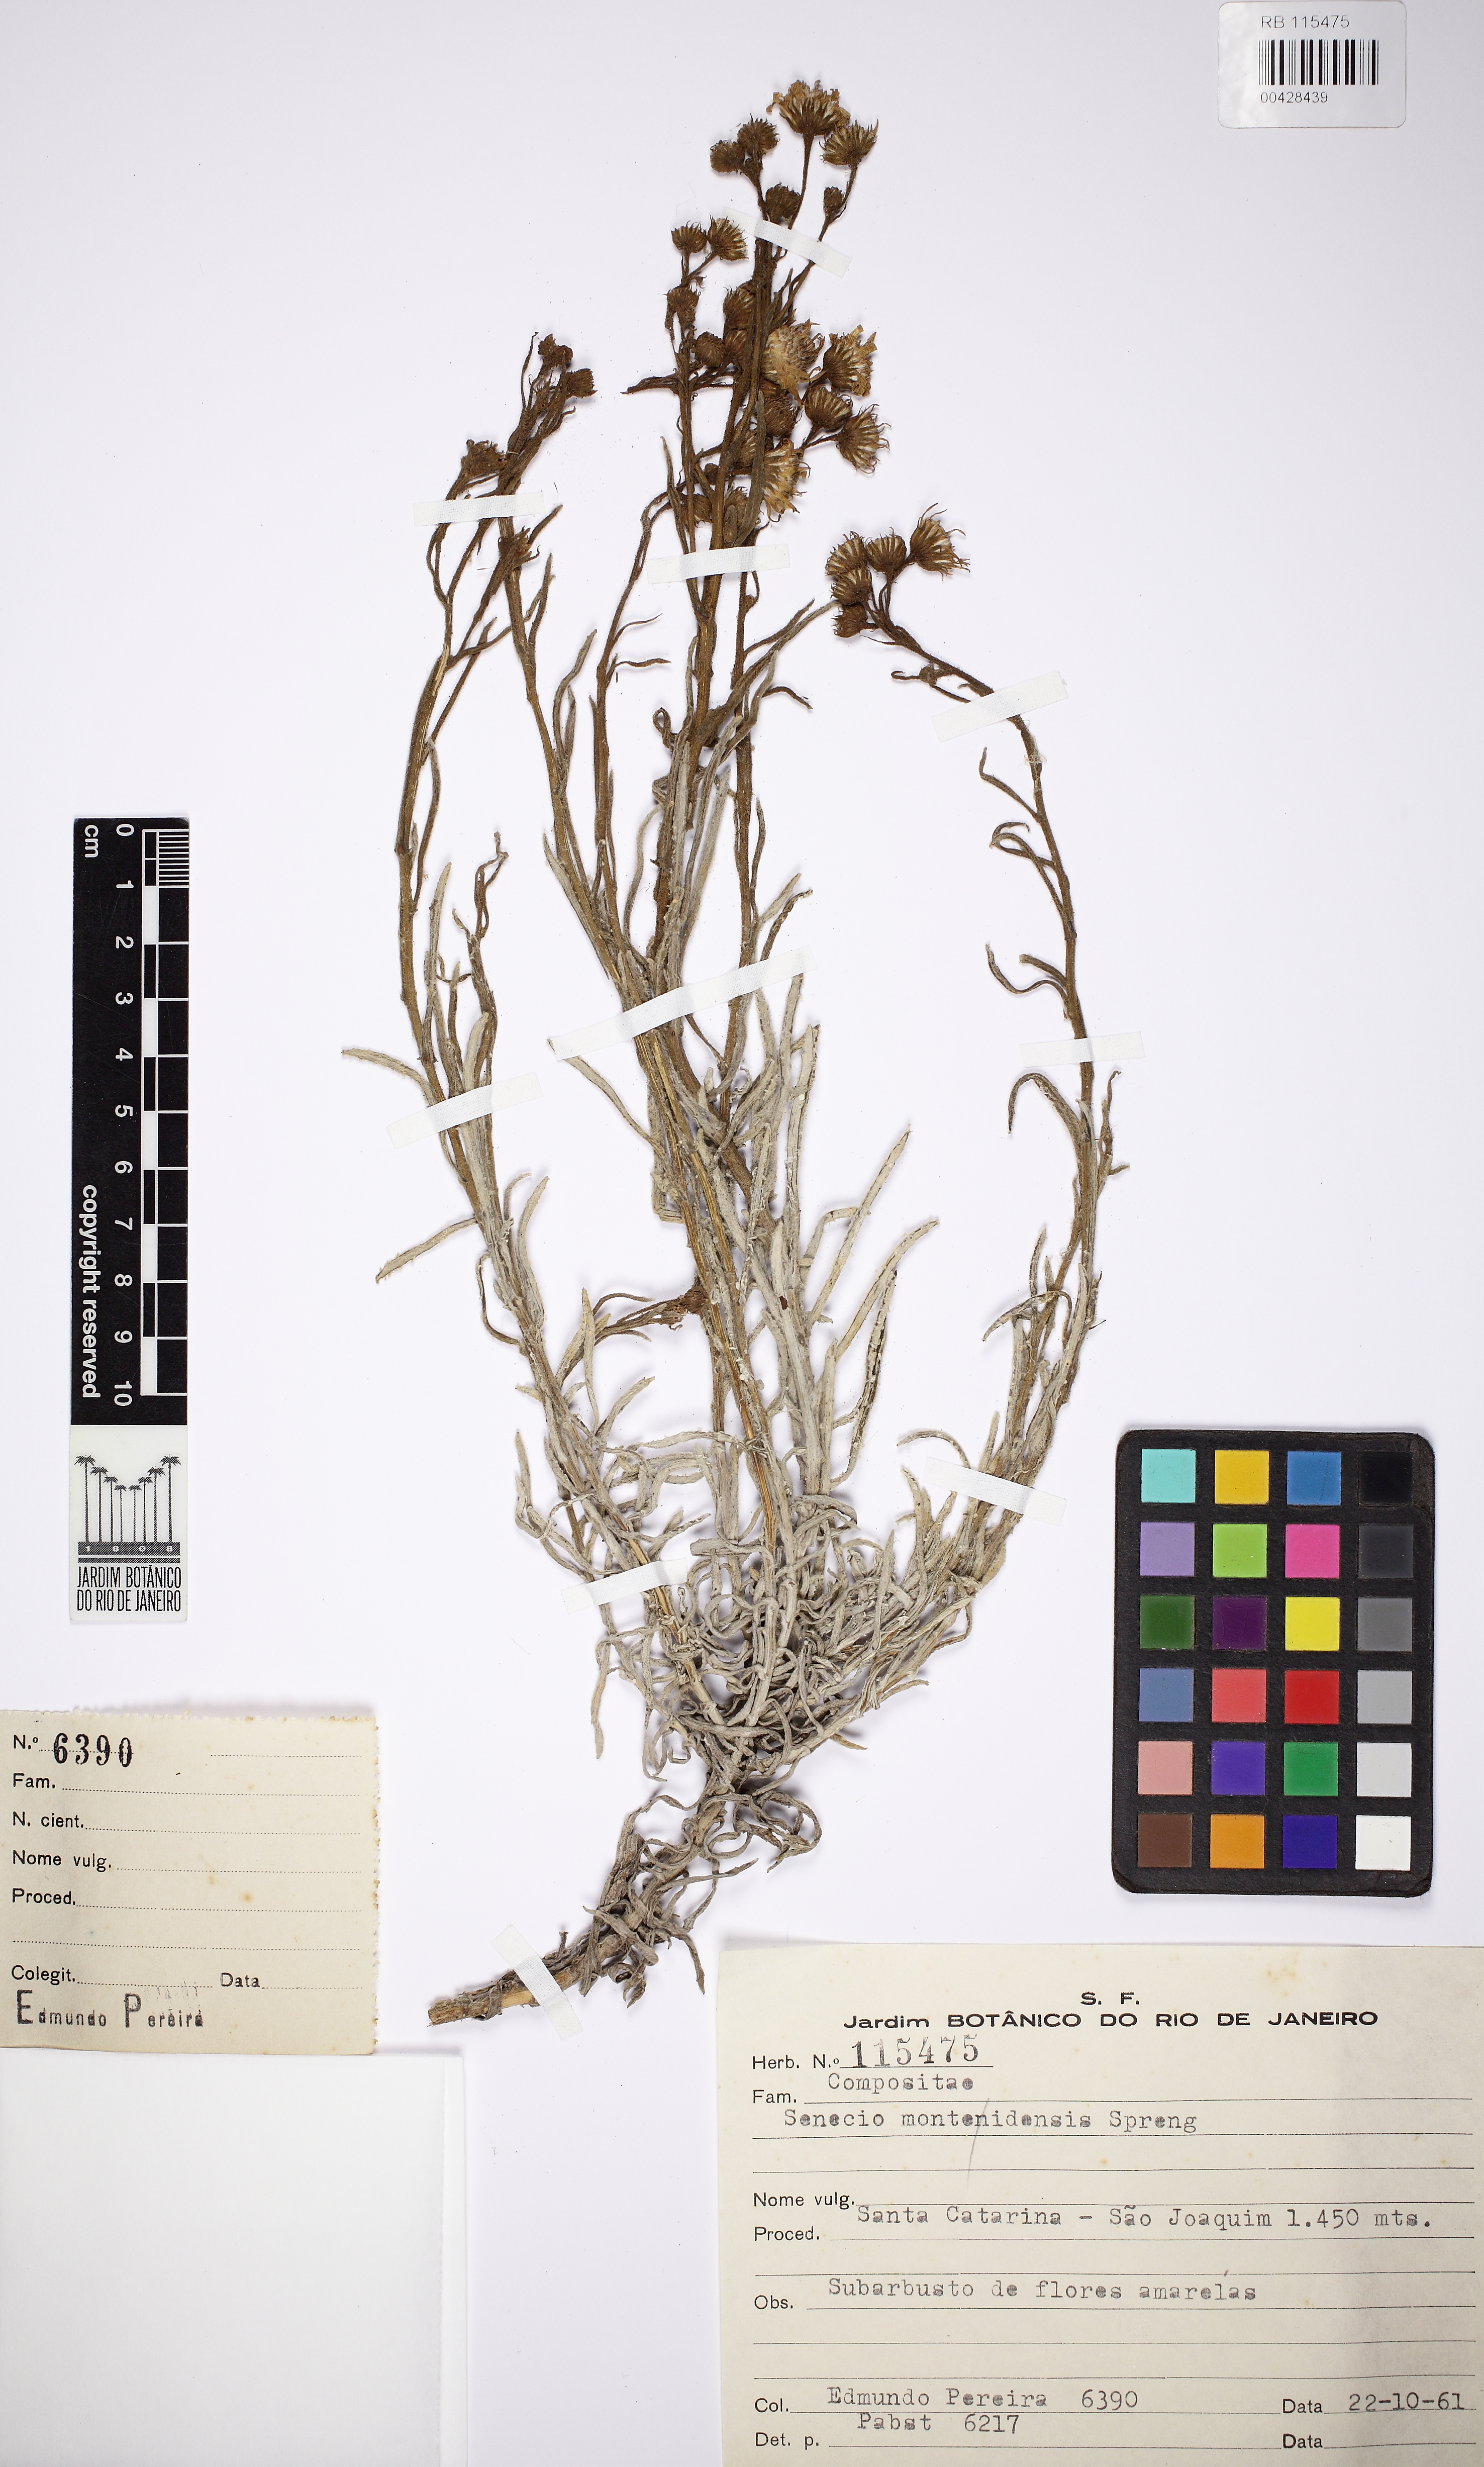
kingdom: Plantae
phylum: Tracheophyta
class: Magnoliopsida
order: Asterales
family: Asteraceae
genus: Senecio
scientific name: Senecio montevidensis
